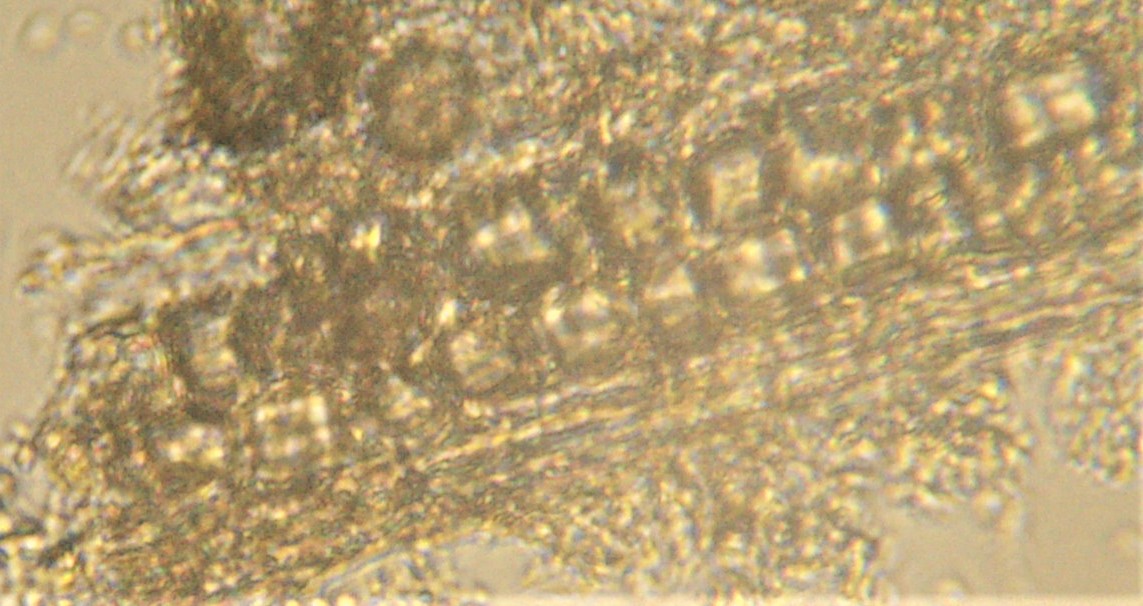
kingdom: Fungi
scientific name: Fungi
